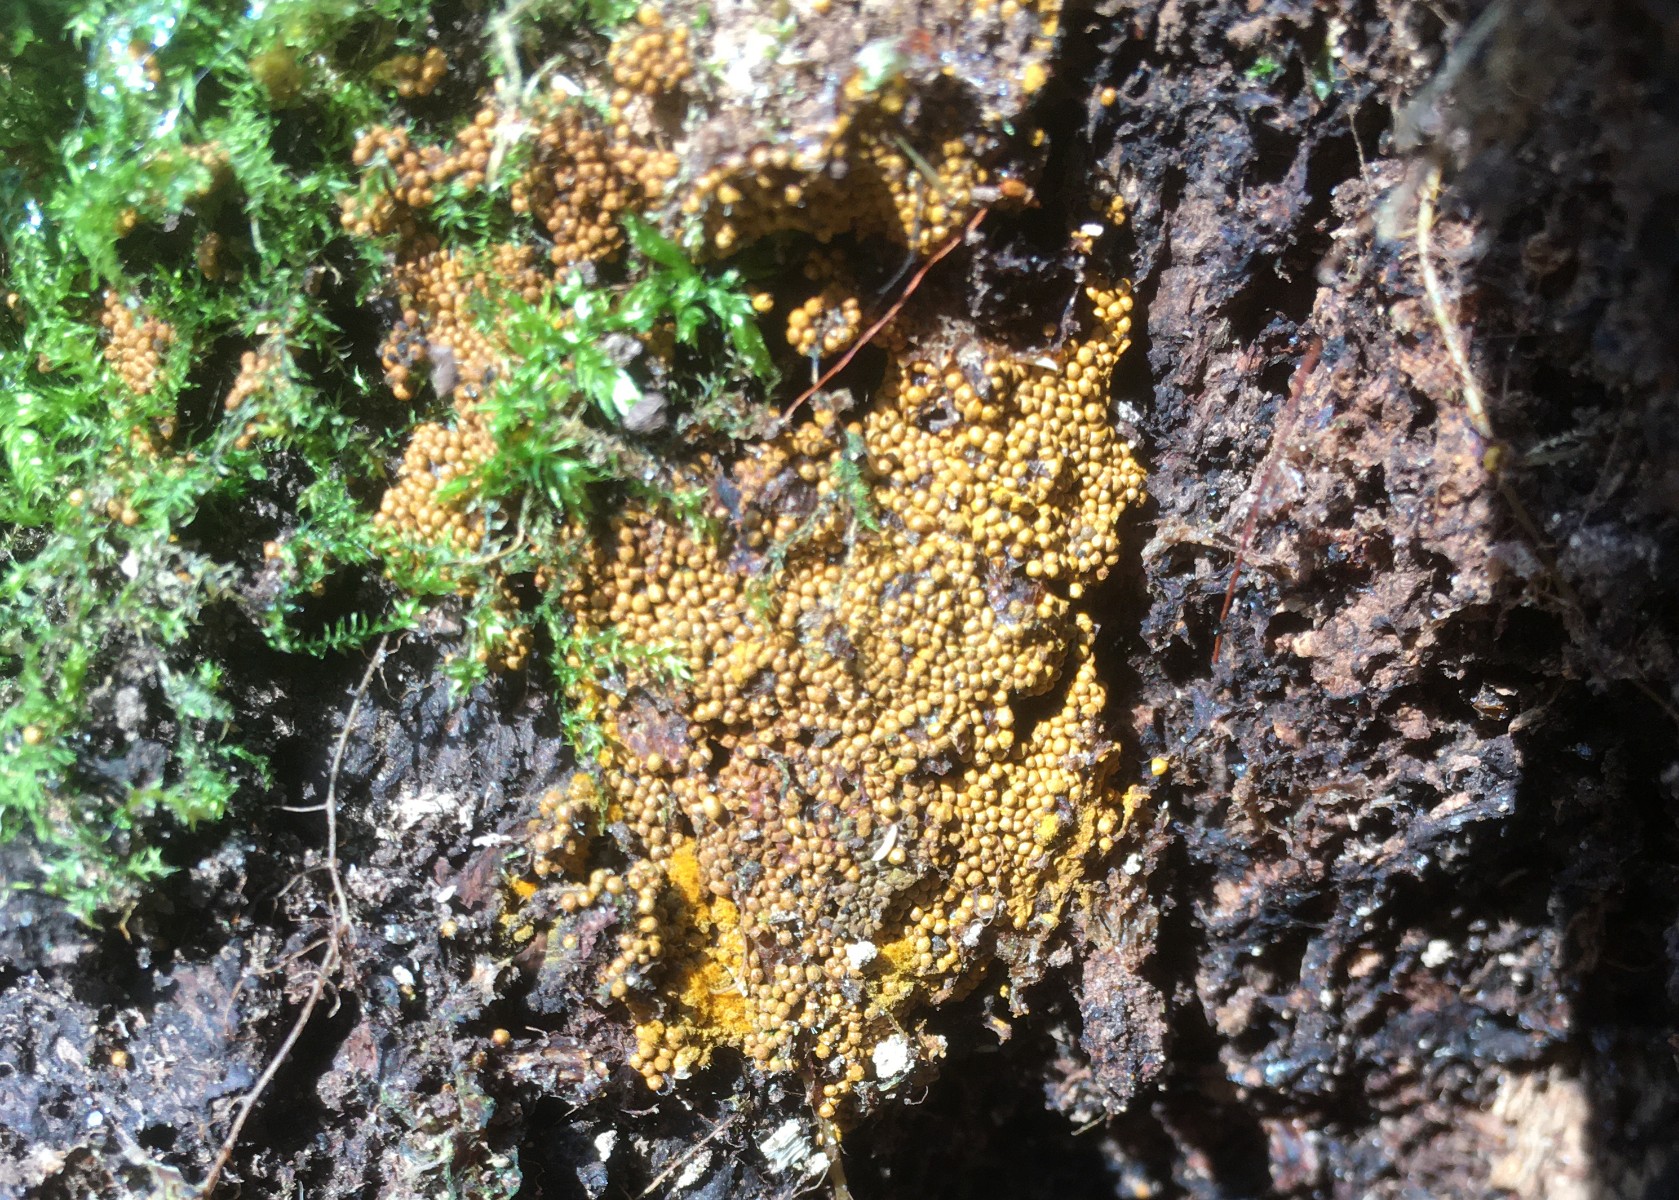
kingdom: Protozoa
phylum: Mycetozoa
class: Myxomycetes
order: Trichiales
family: Trichiaceae
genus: Trichia
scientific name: Trichia scabra
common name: tæppe-hårbold
